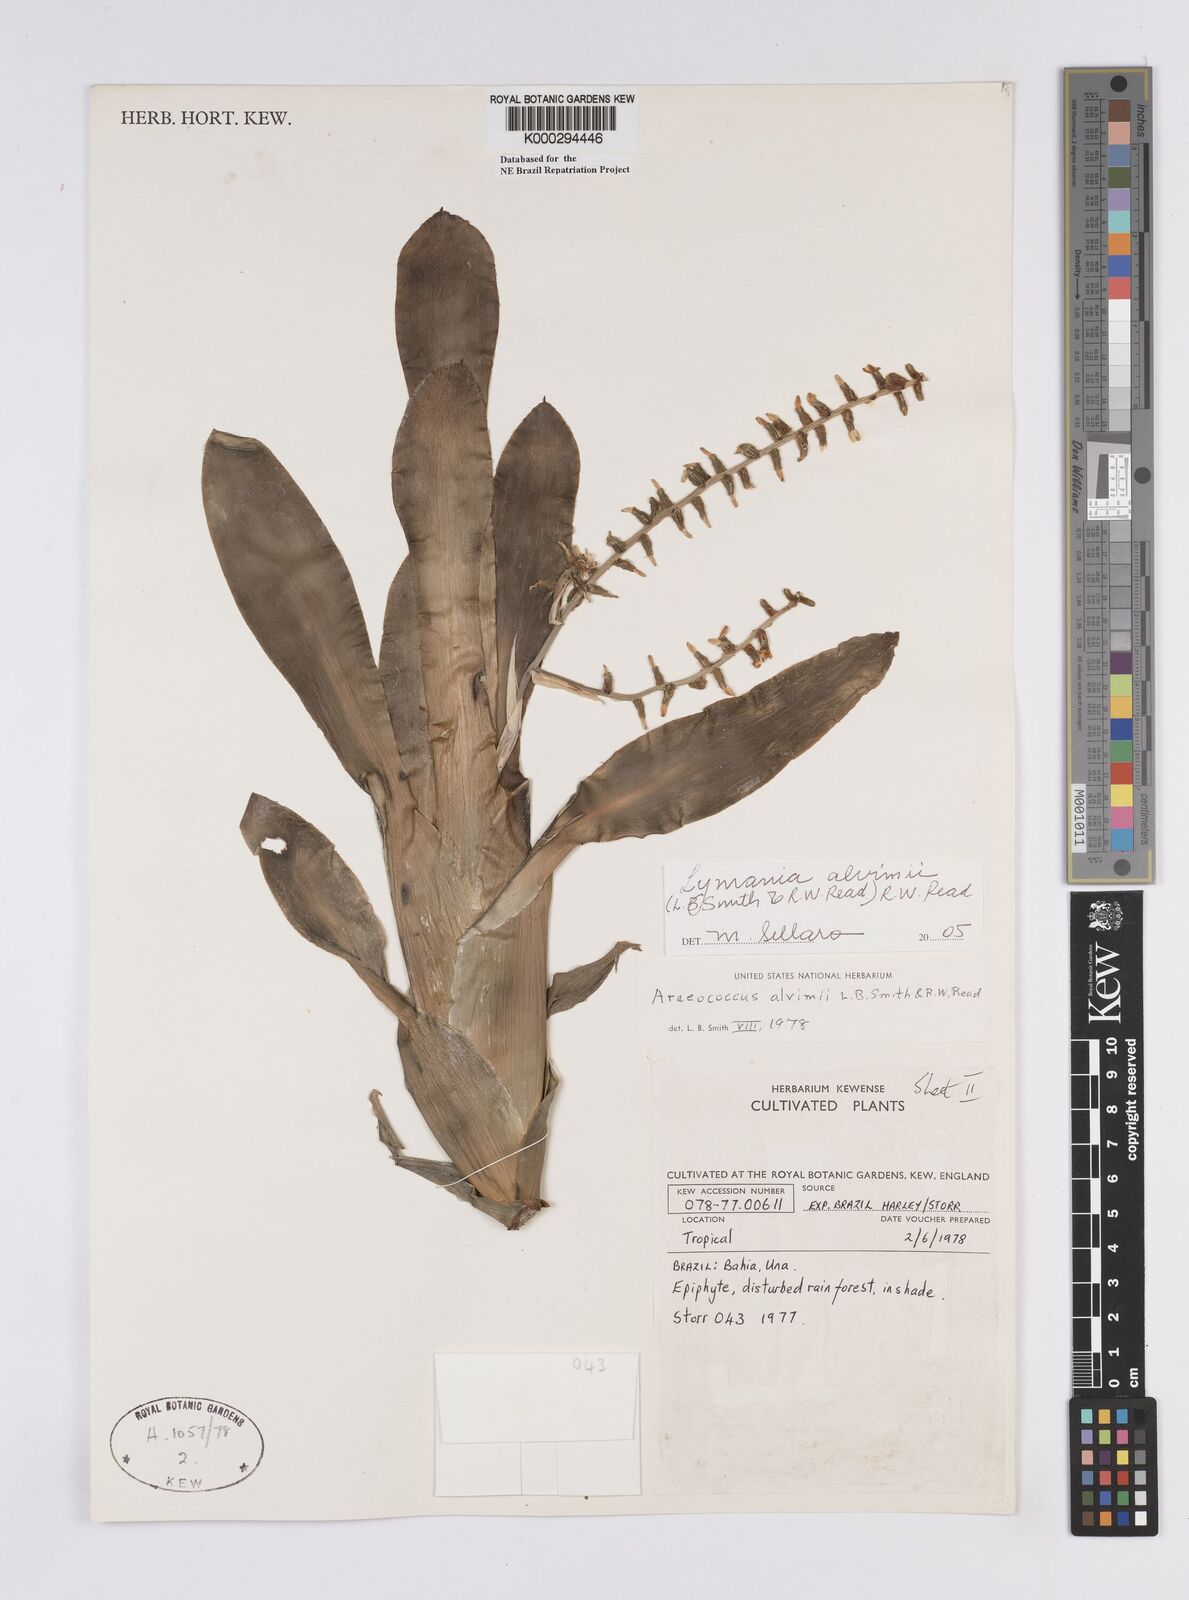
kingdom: Plantae
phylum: Tracheophyta
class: Liliopsida
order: Poales
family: Bromeliaceae
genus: Lymania
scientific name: Lymania alvimii
